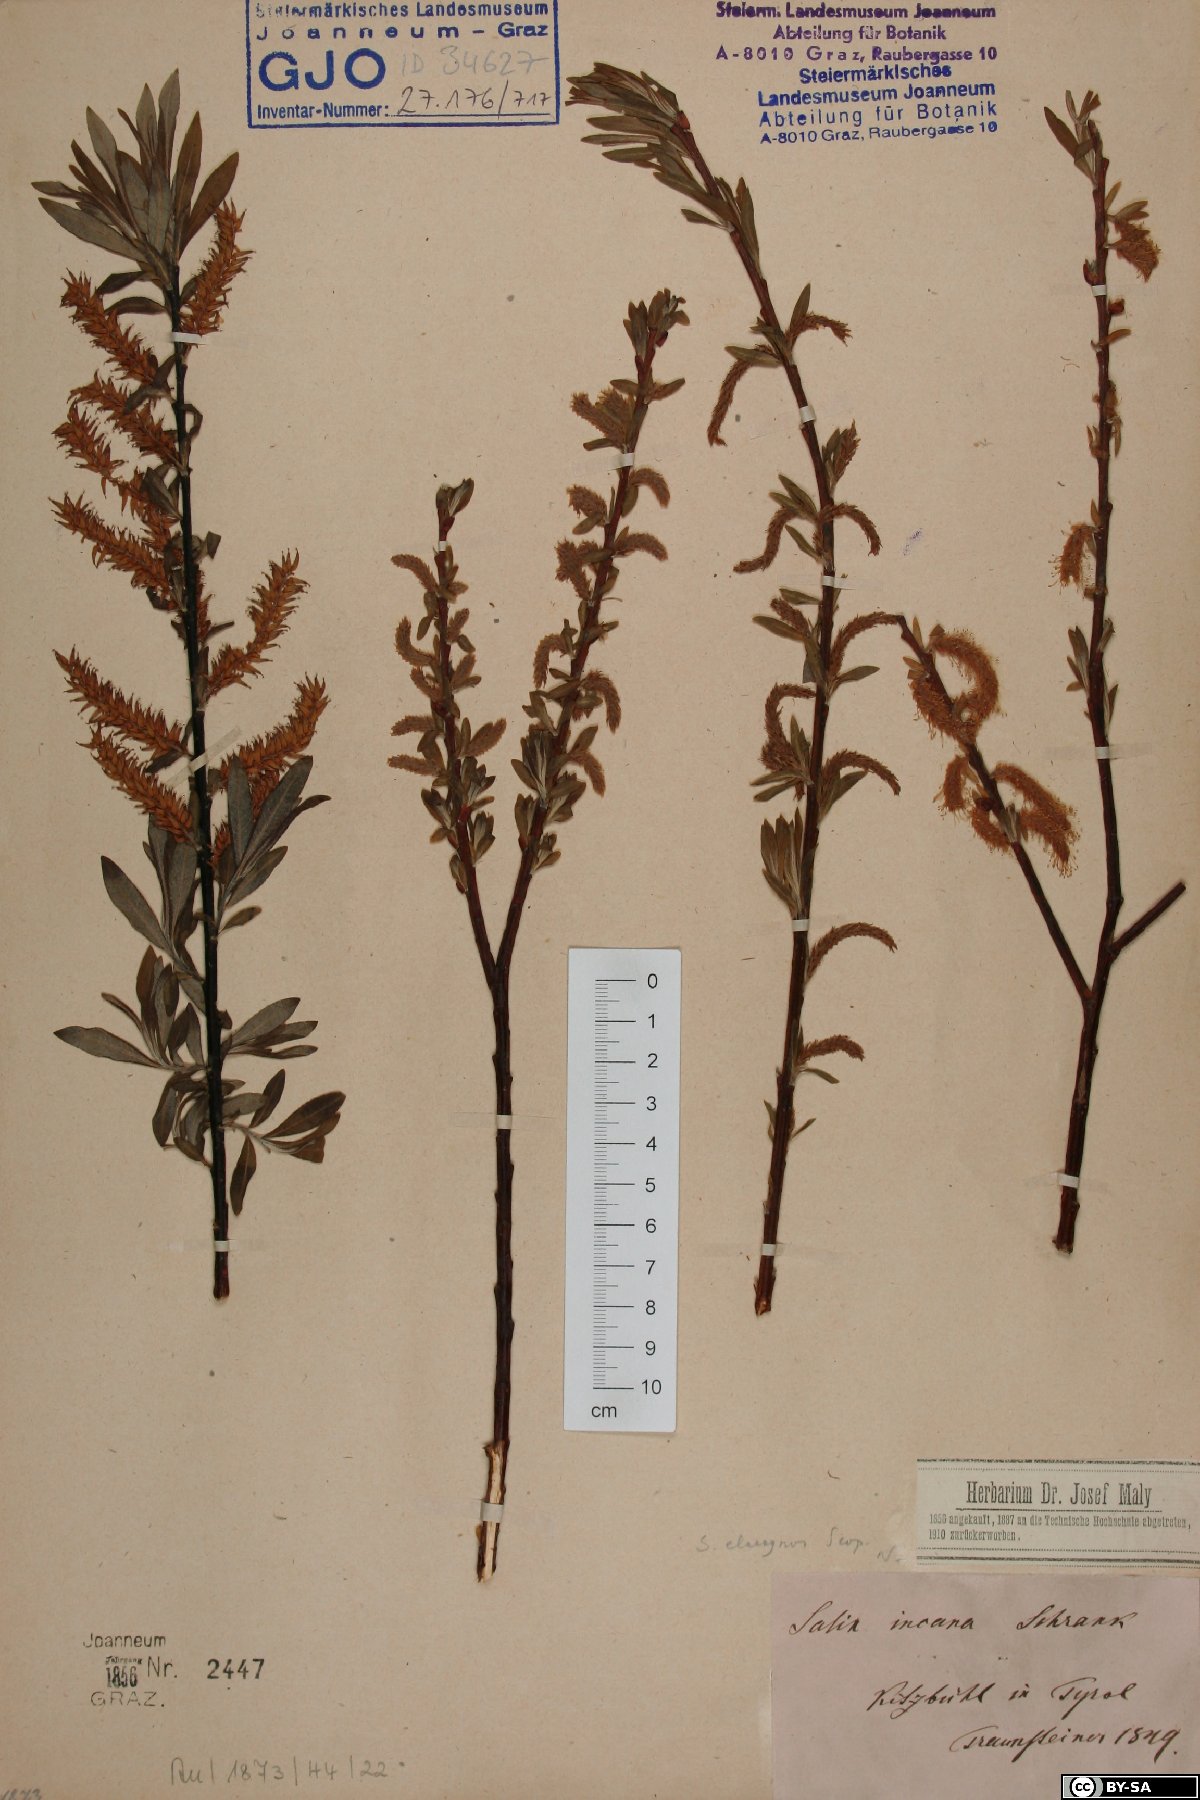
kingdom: Plantae
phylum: Tracheophyta
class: Magnoliopsida
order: Malpighiales
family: Salicaceae
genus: Salix
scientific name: Salix eleagnos
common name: Elaeagnus willow
